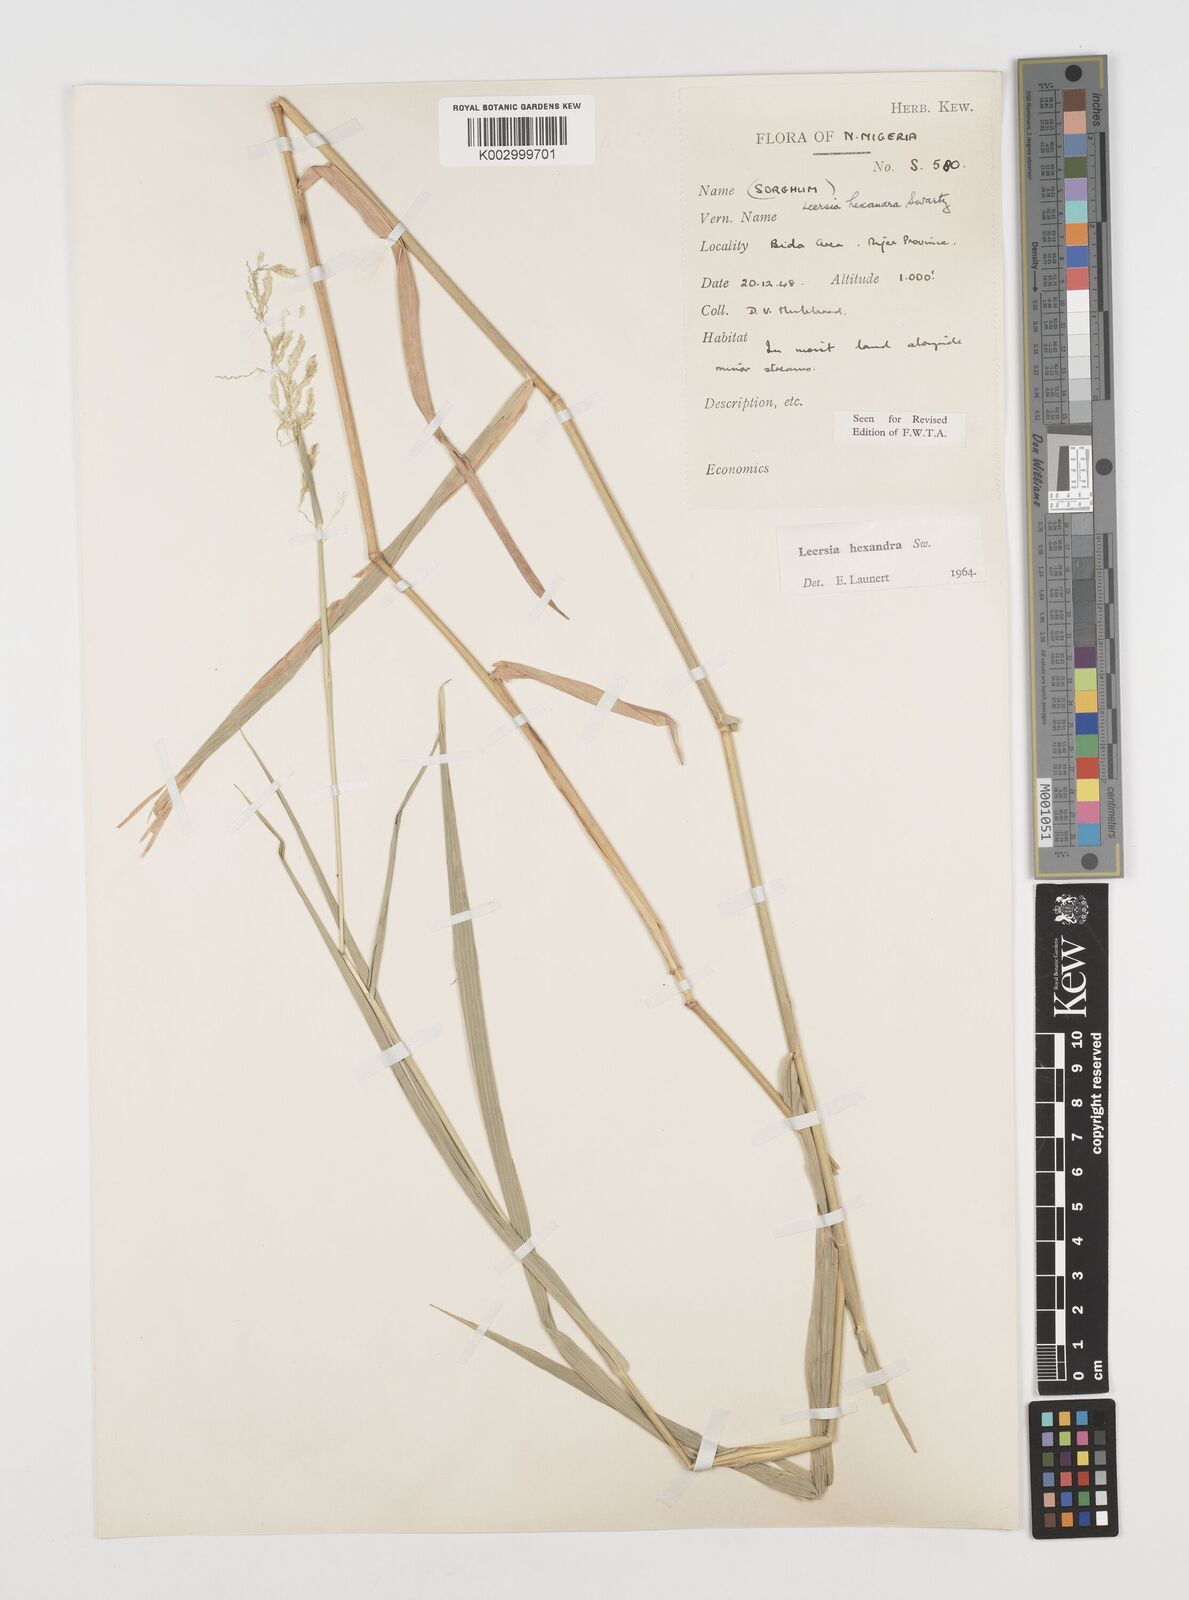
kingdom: Plantae
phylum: Tracheophyta
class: Liliopsida
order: Poales
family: Poaceae
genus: Leersia
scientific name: Leersia hexandra
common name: Southern cut grass
